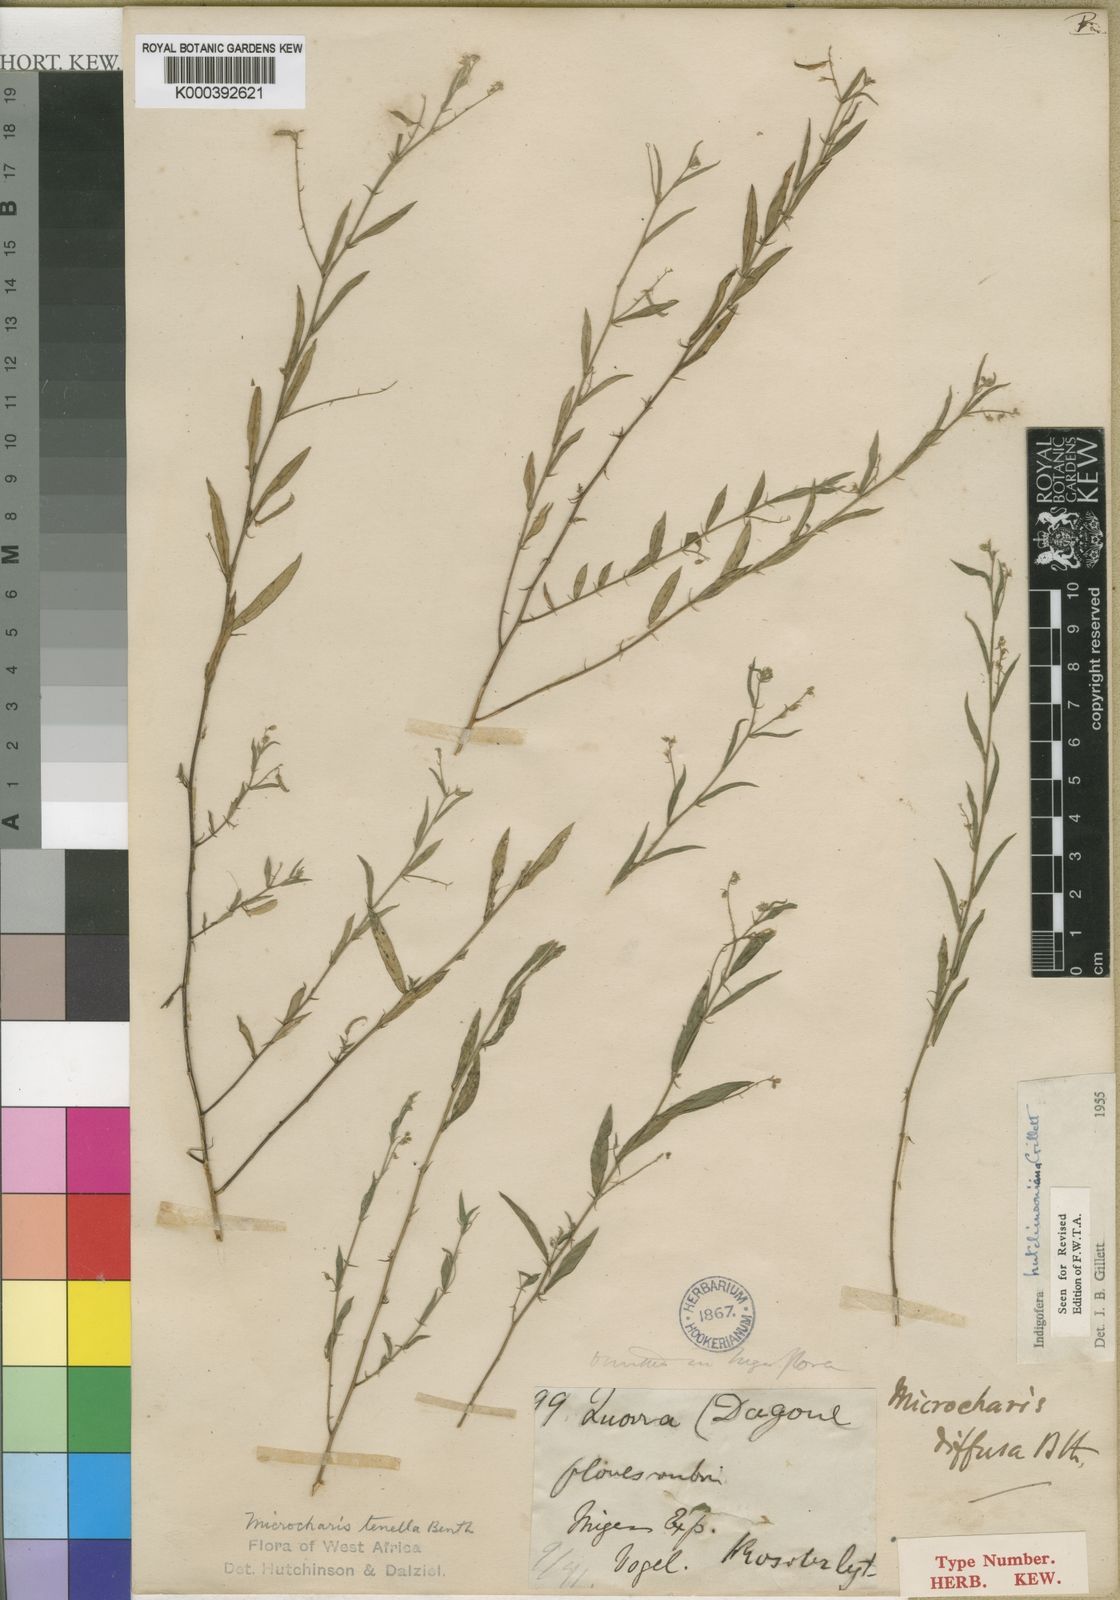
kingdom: Plantae
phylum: Tracheophyta
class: Magnoliopsida
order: Fabales
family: Fabaceae
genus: Microcharis
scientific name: Microcharis tenella
